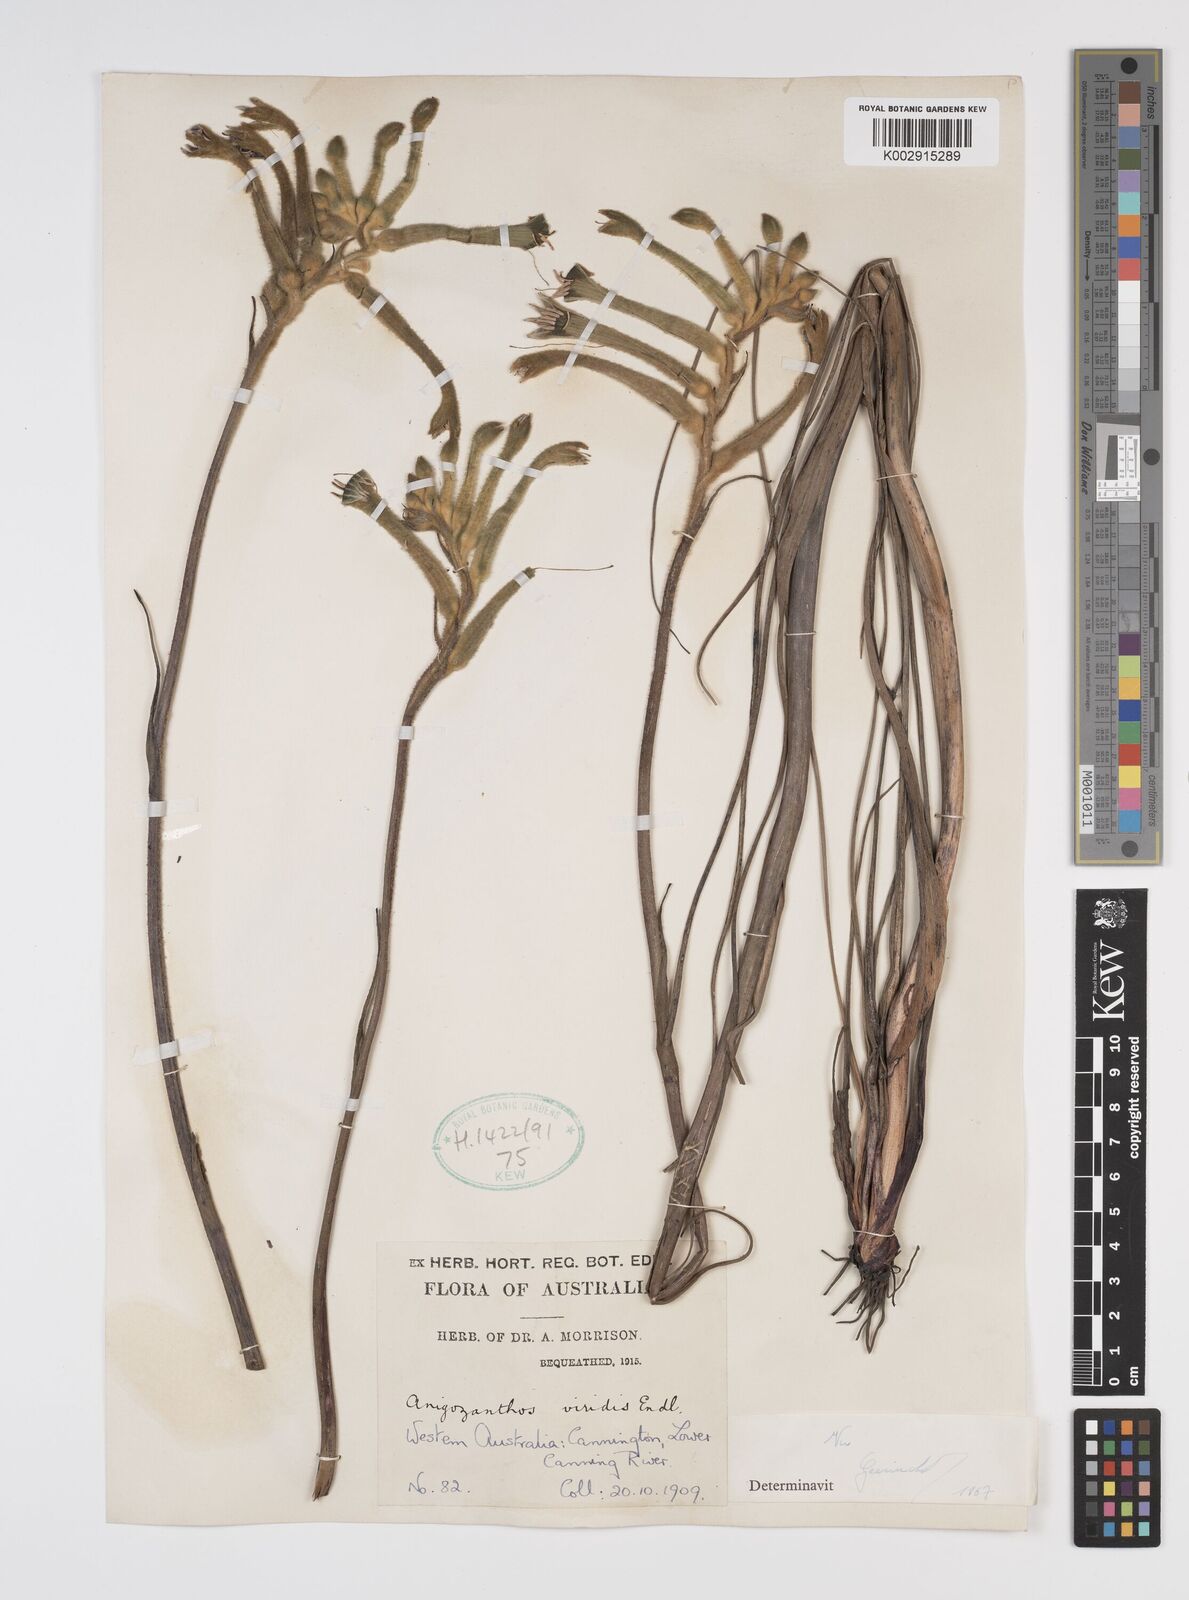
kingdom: Plantae
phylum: Tracheophyta
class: Liliopsida
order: Commelinales
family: Haemodoraceae
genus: Anigozanthos
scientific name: Anigozanthos viridis
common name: Green kangaroo-paw
